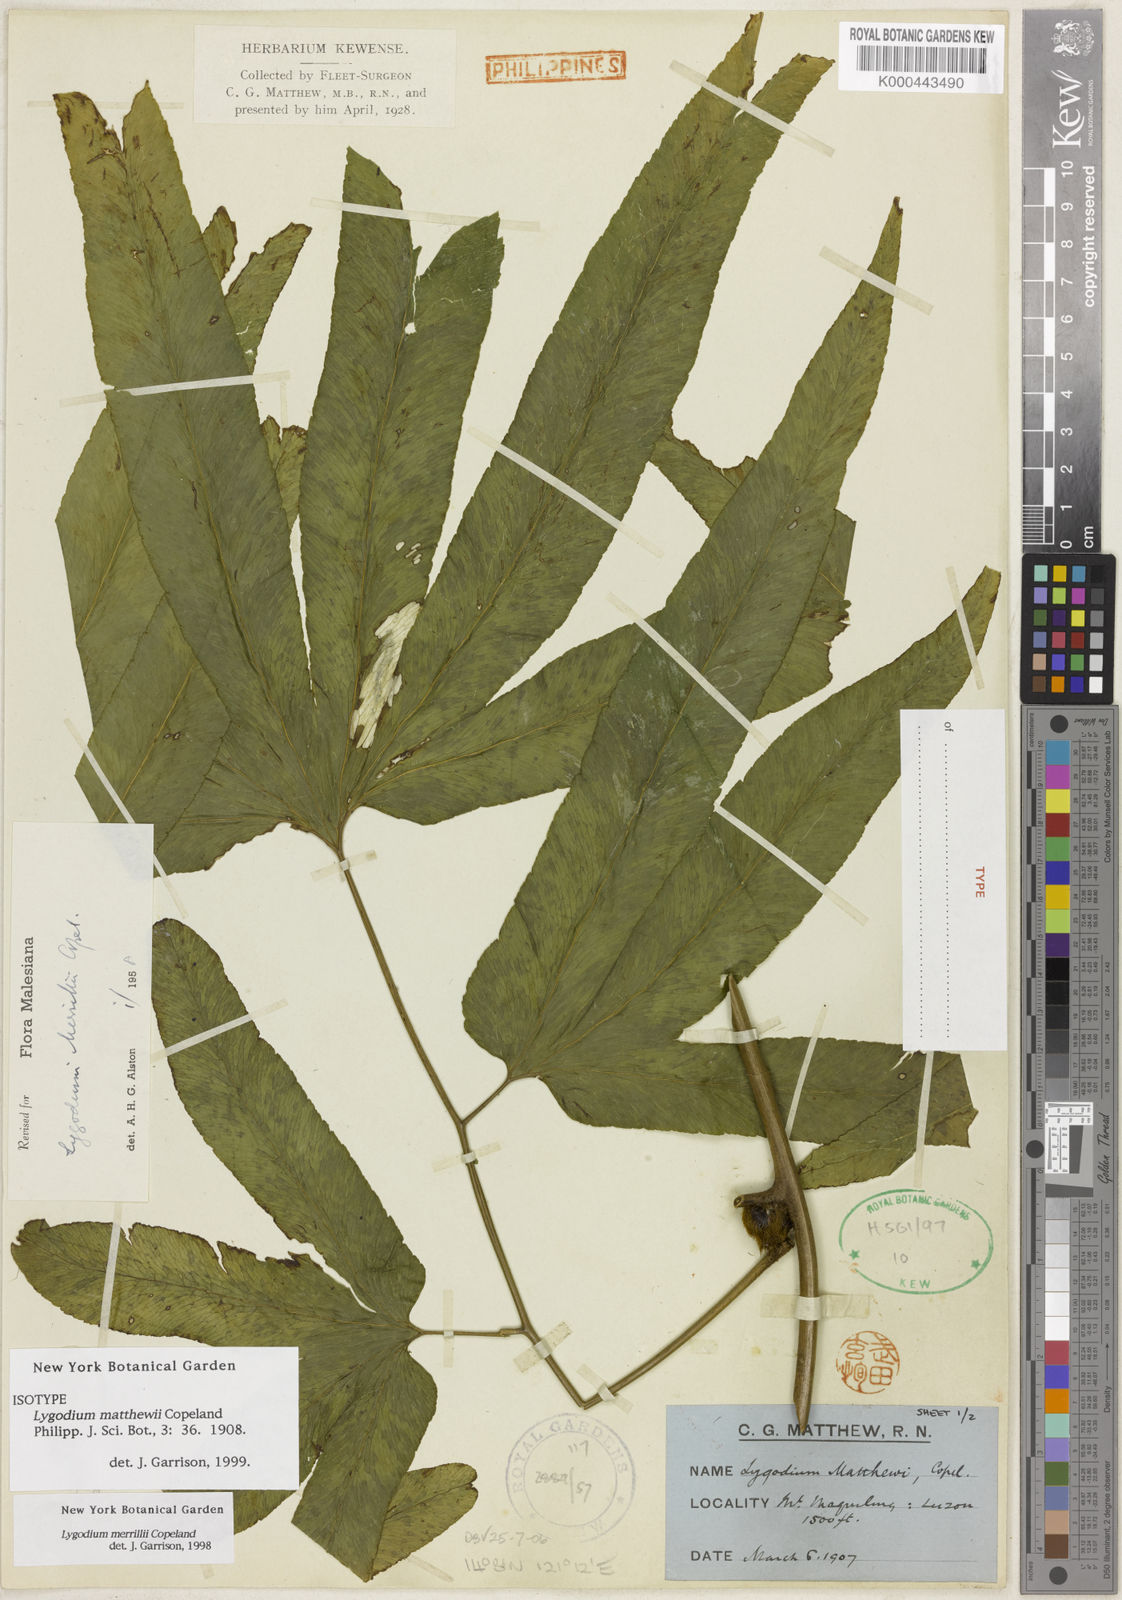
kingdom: Plantae
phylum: Tracheophyta
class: Polypodiopsida
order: Schizaeales
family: Lygodiaceae
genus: Lygodium
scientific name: Lygodium merrillii
